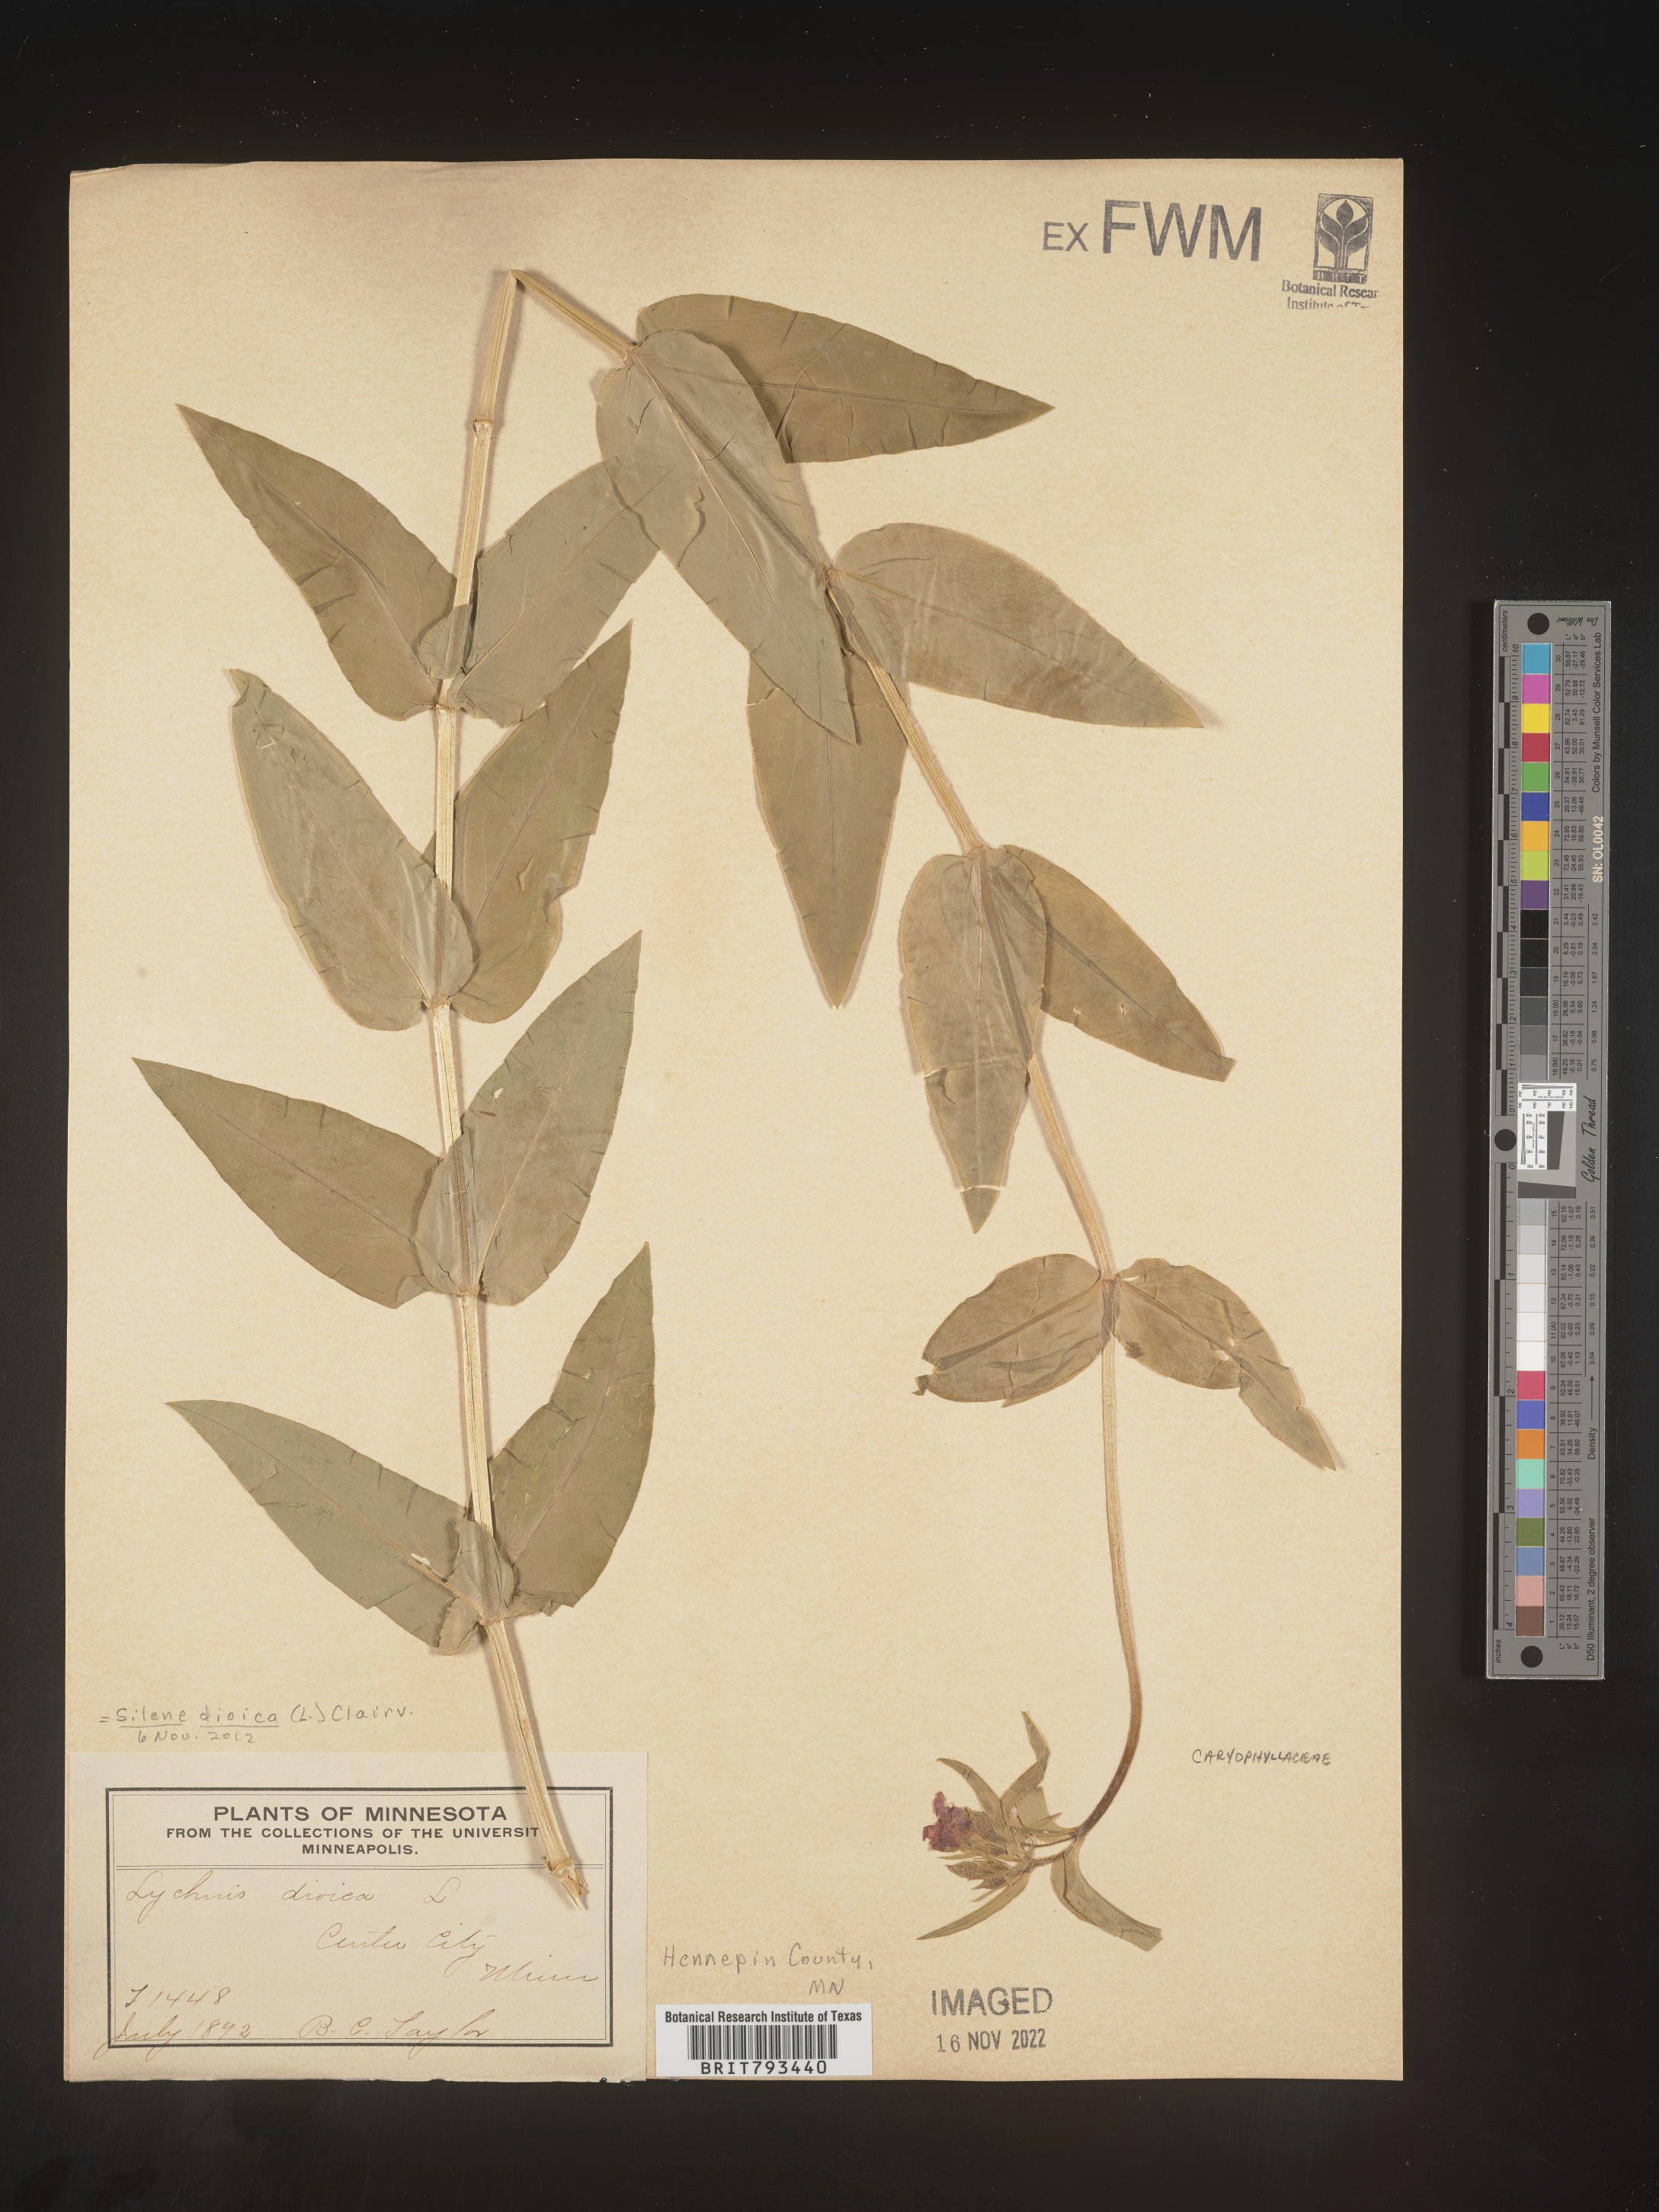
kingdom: Plantae
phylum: Tracheophyta
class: Magnoliopsida
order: Caryophyllales
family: Caryophyllaceae
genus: Silene
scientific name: Silene dioica
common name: Red campion
